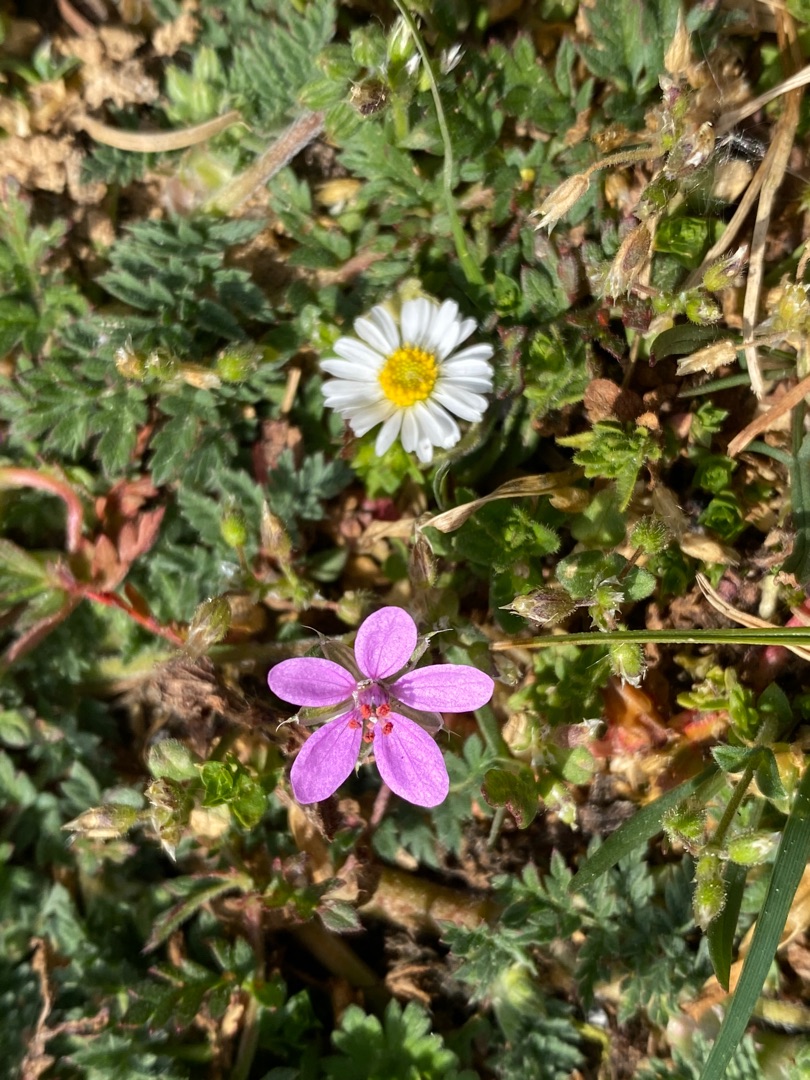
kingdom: Plantae
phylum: Tracheophyta
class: Magnoliopsida
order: Geraniales
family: Geraniaceae
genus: Erodium
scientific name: Erodium cicutarium
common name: Hejrenæb
